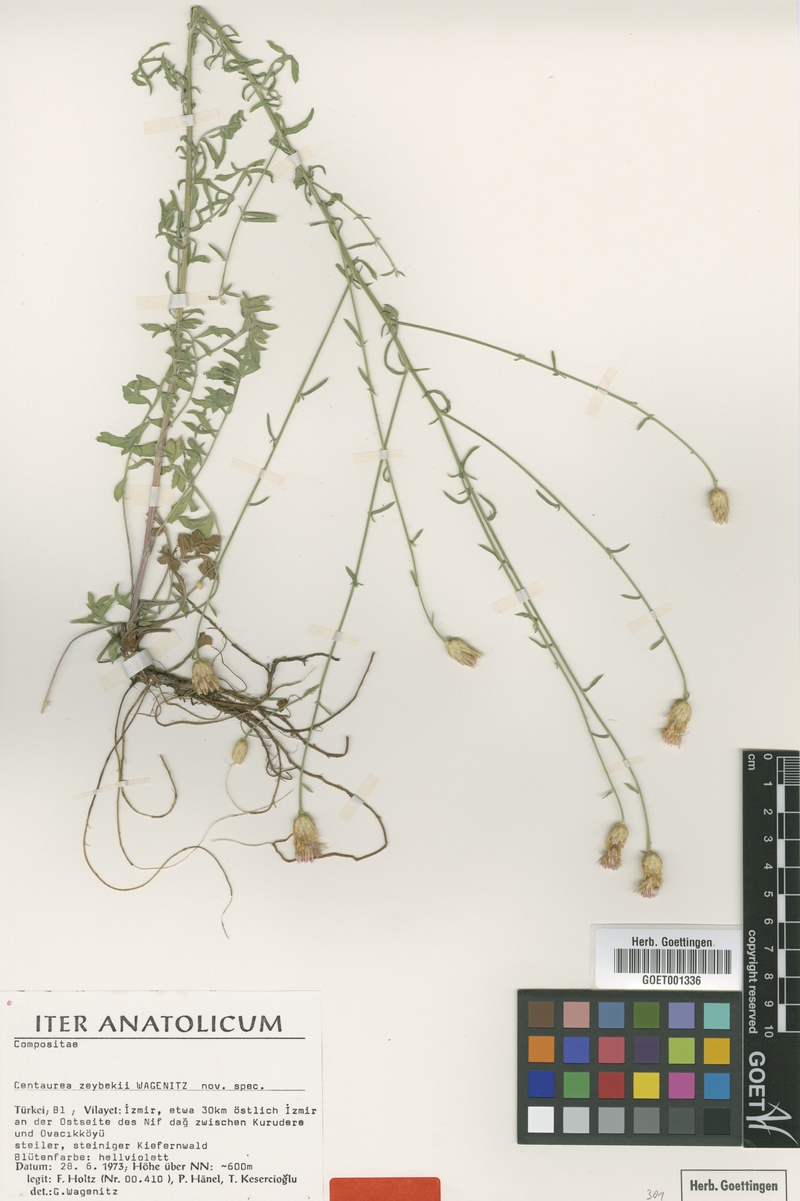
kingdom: Plantae
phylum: Tracheophyta
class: Magnoliopsida
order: Asterales
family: Asteraceae
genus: Centaurea
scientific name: Centaurea zeybekii
